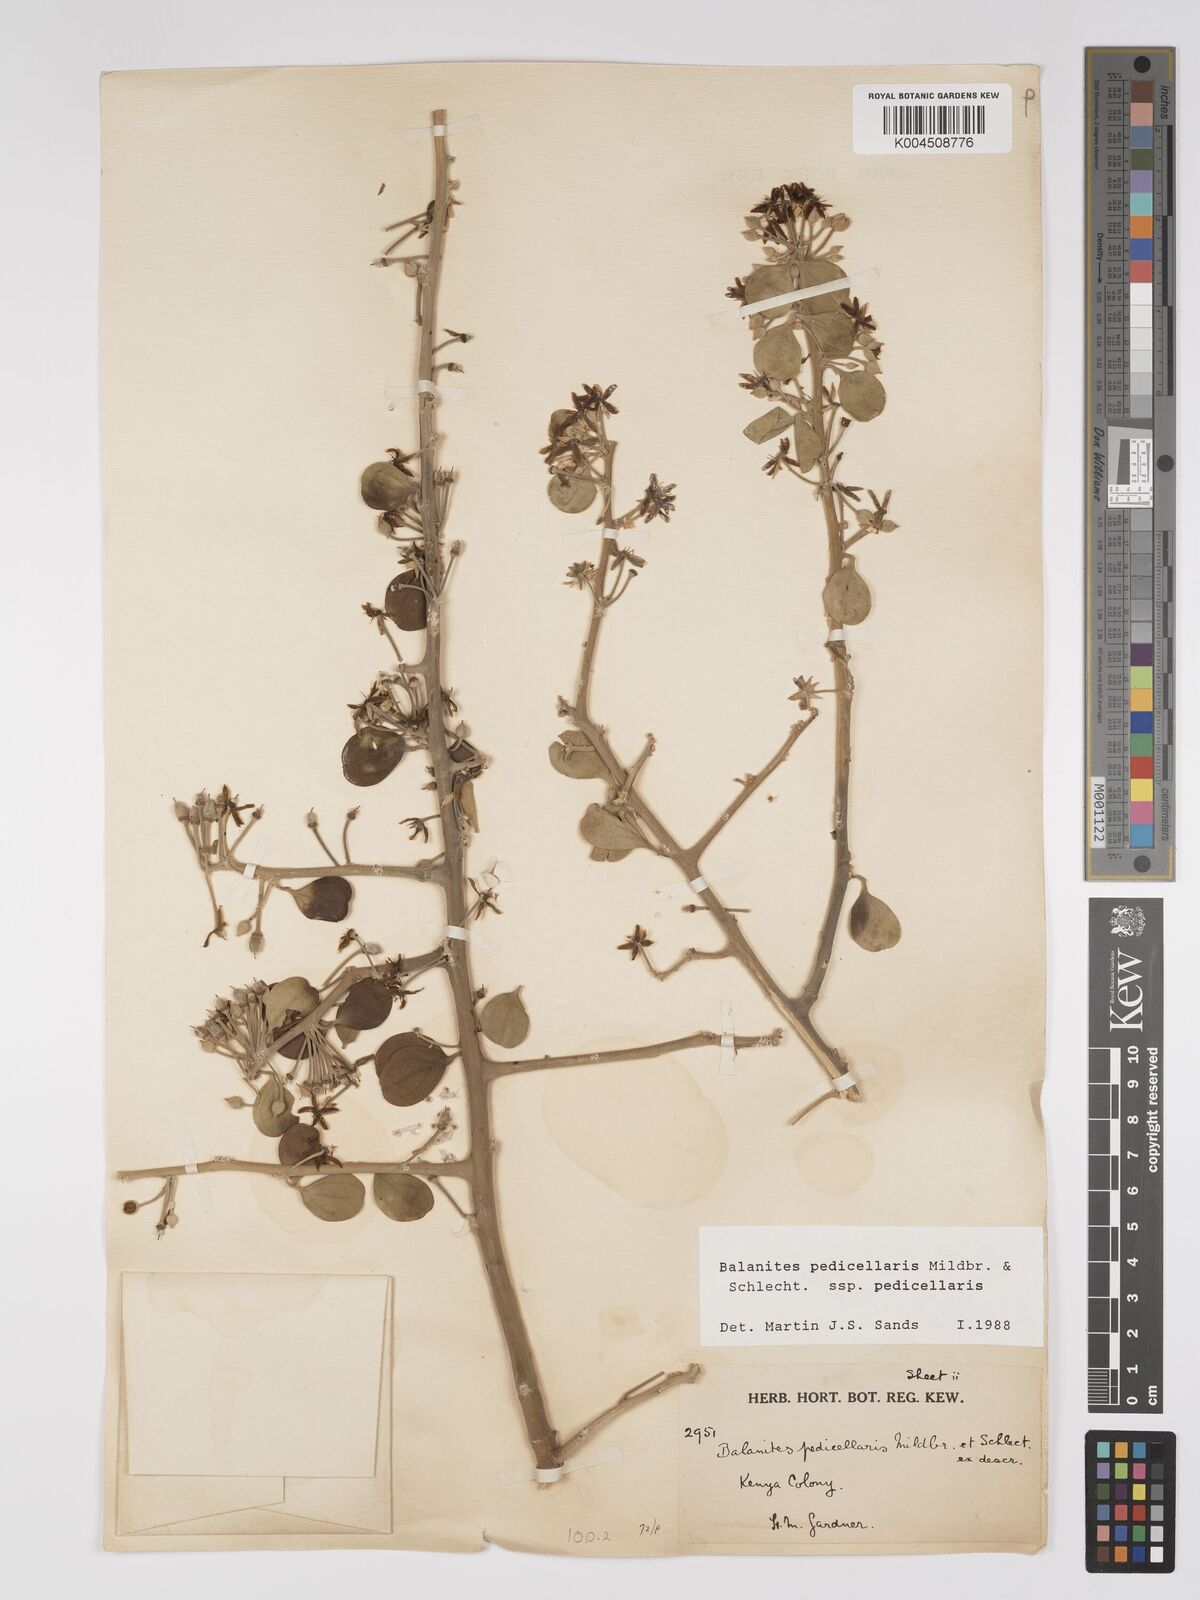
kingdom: Plantae
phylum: Tracheophyta
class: Magnoliopsida
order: Zygophyllales
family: Zygophyllaceae
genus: Balanites
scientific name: Balanites pedicellaris
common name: Small green-thorn
